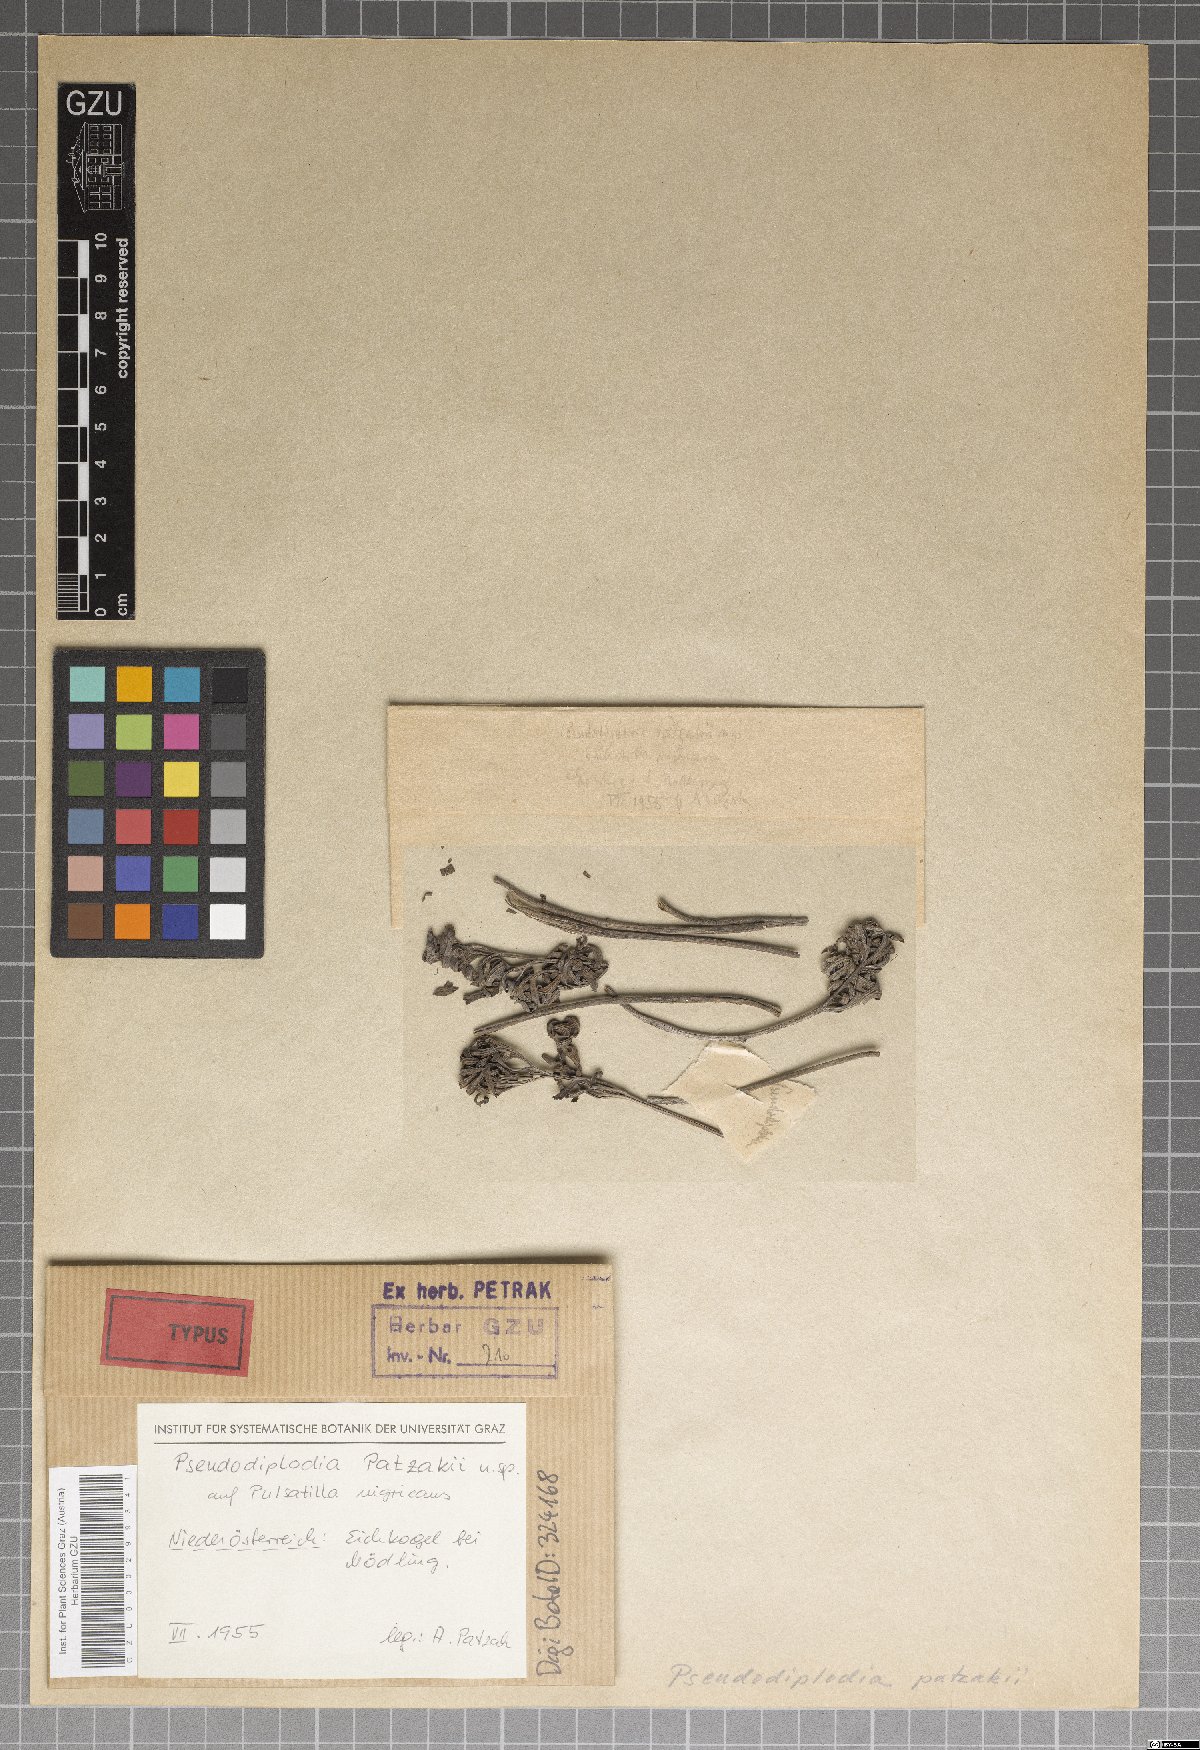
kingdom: Fungi
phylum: Ascomycota
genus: Pseudodiplodia
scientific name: Pseudodiplodia patzakii
